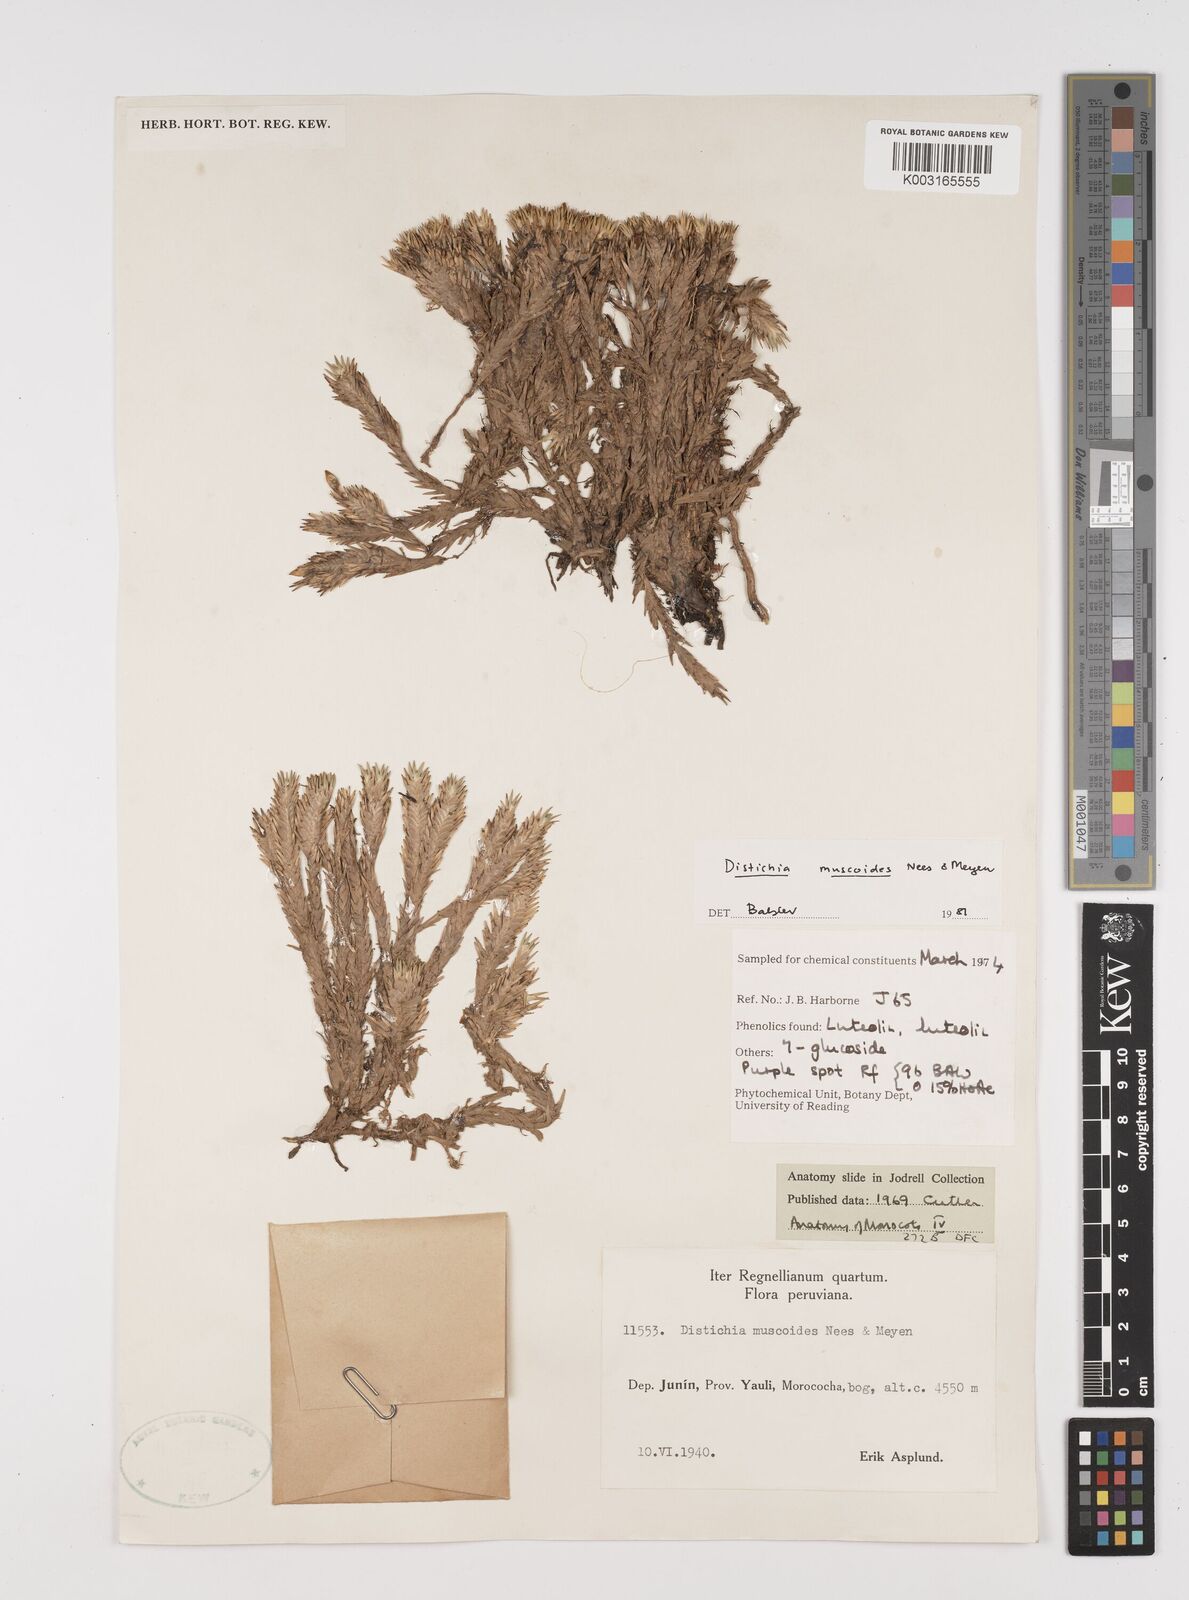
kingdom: Plantae
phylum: Tracheophyta
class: Liliopsida
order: Poales
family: Juncaceae
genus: Distichia
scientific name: Distichia muscoides
